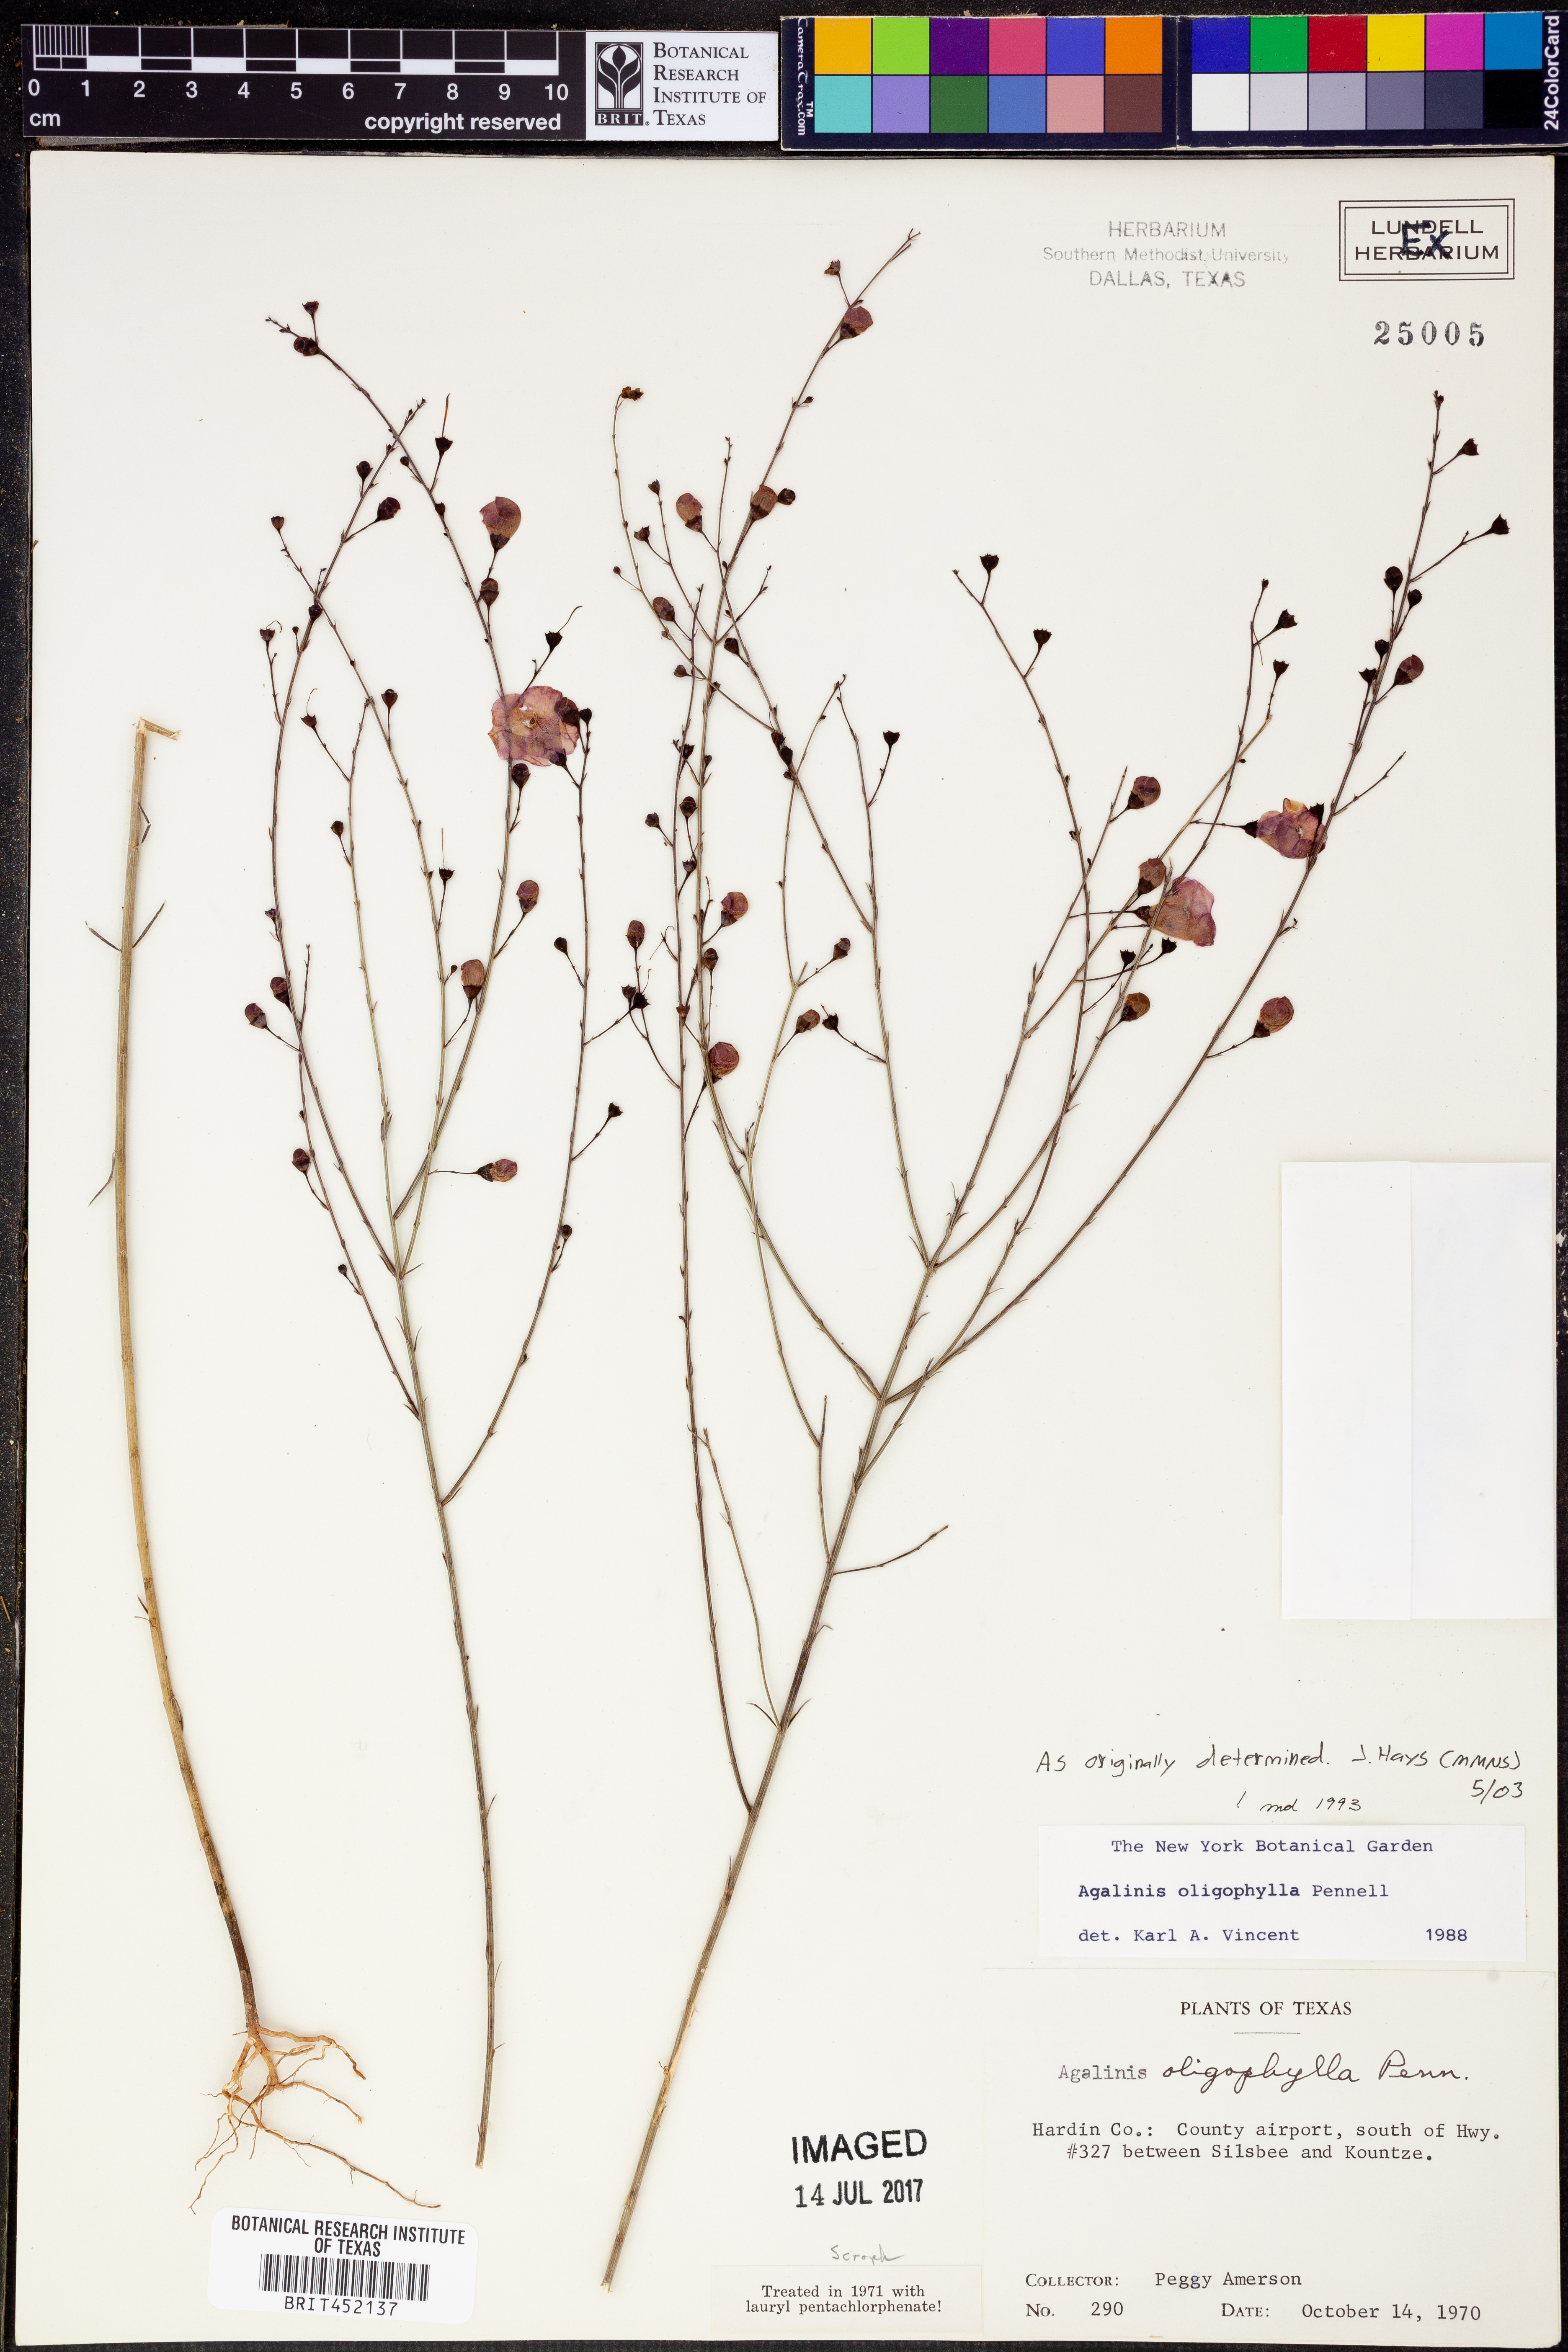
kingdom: Plantae
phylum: Tracheophyta
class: Magnoliopsida
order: Lamiales
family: Orobanchaceae
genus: Agalinis
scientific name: Agalinis oligophylla
